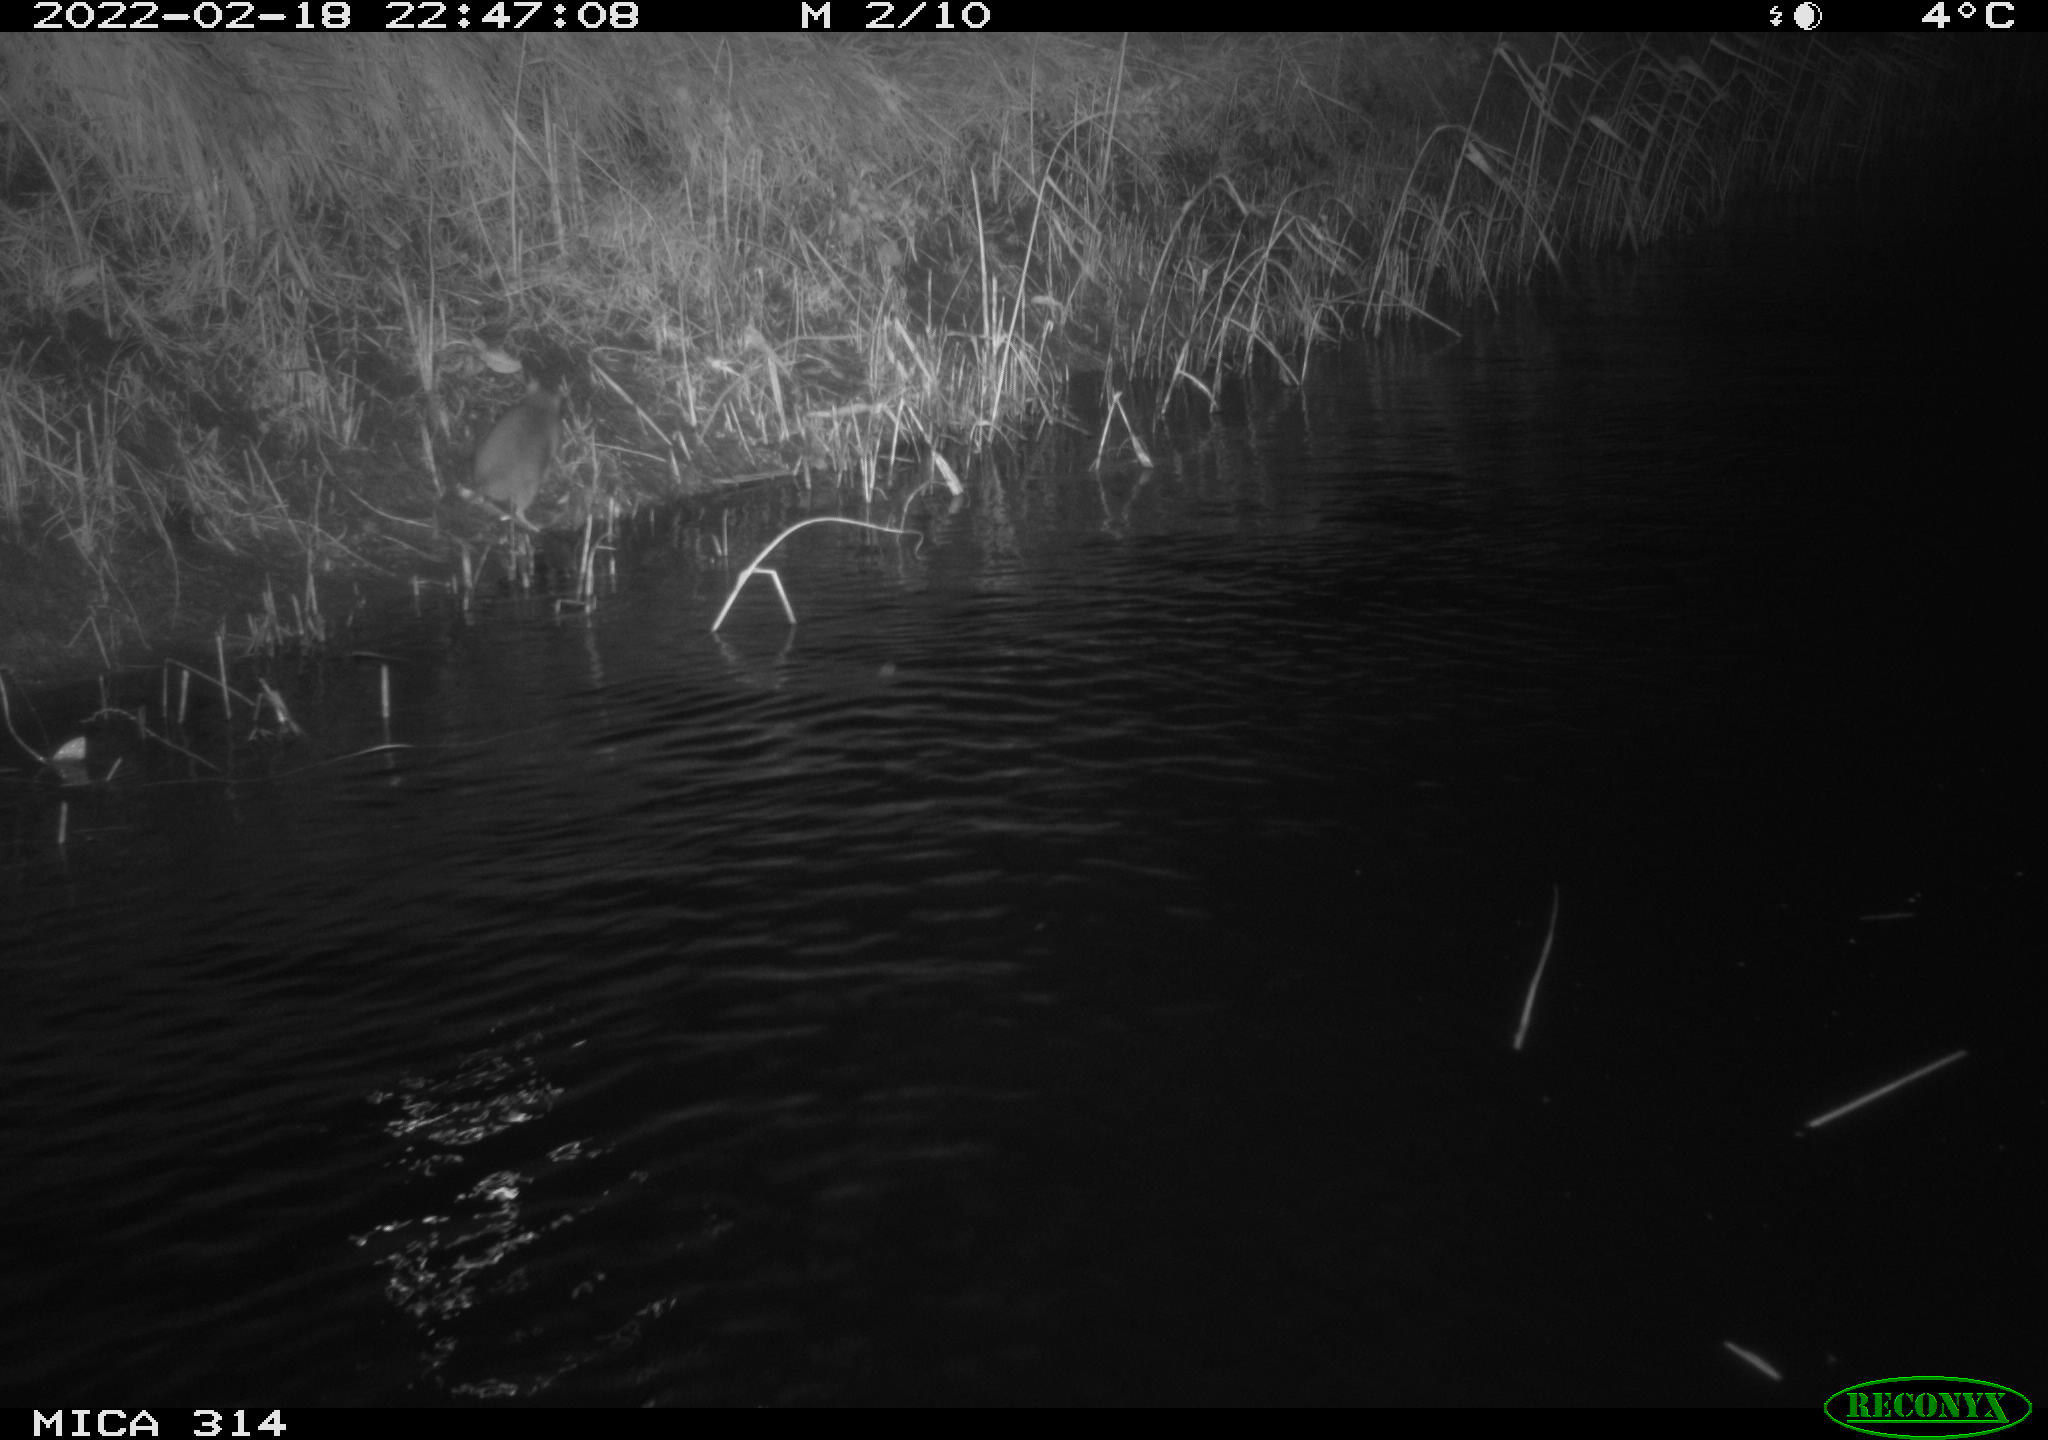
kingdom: Animalia
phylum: Chordata
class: Mammalia
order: Rodentia
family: Muridae
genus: Rattus
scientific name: Rattus norvegicus
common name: Brown rat
